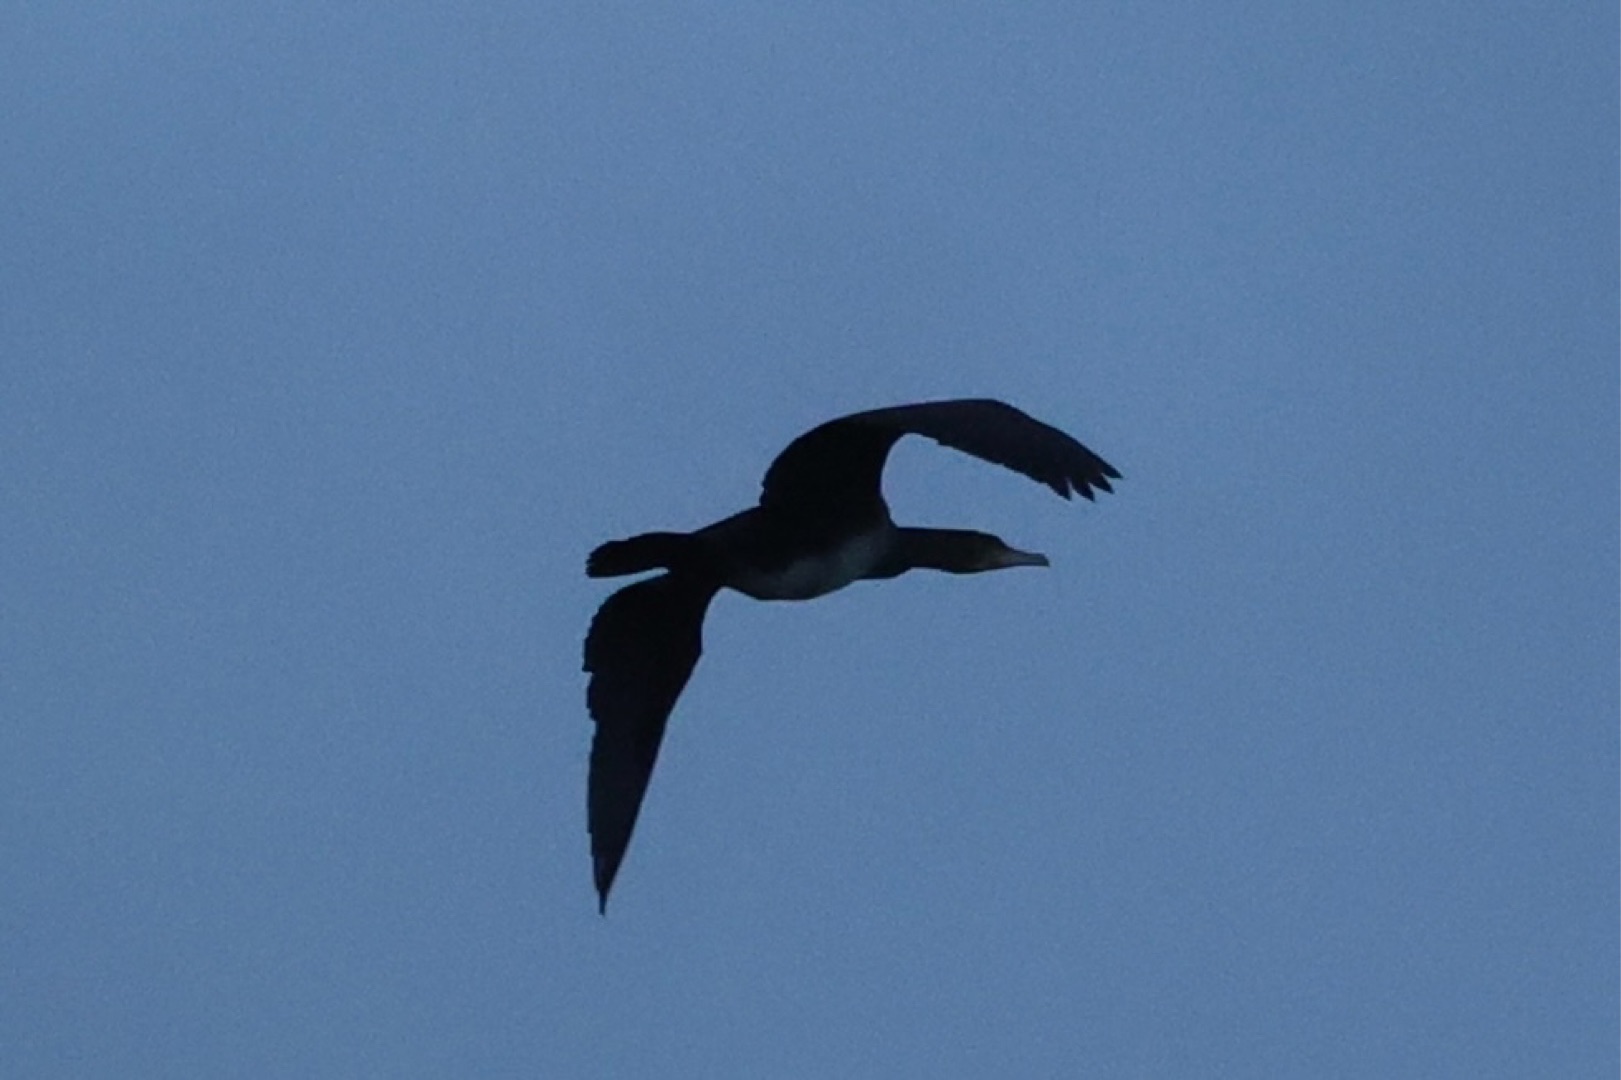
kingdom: Animalia
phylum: Chordata
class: Aves
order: Suliformes
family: Phalacrocoracidae
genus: Phalacrocorax
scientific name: Phalacrocorax carbo
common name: Skarv
